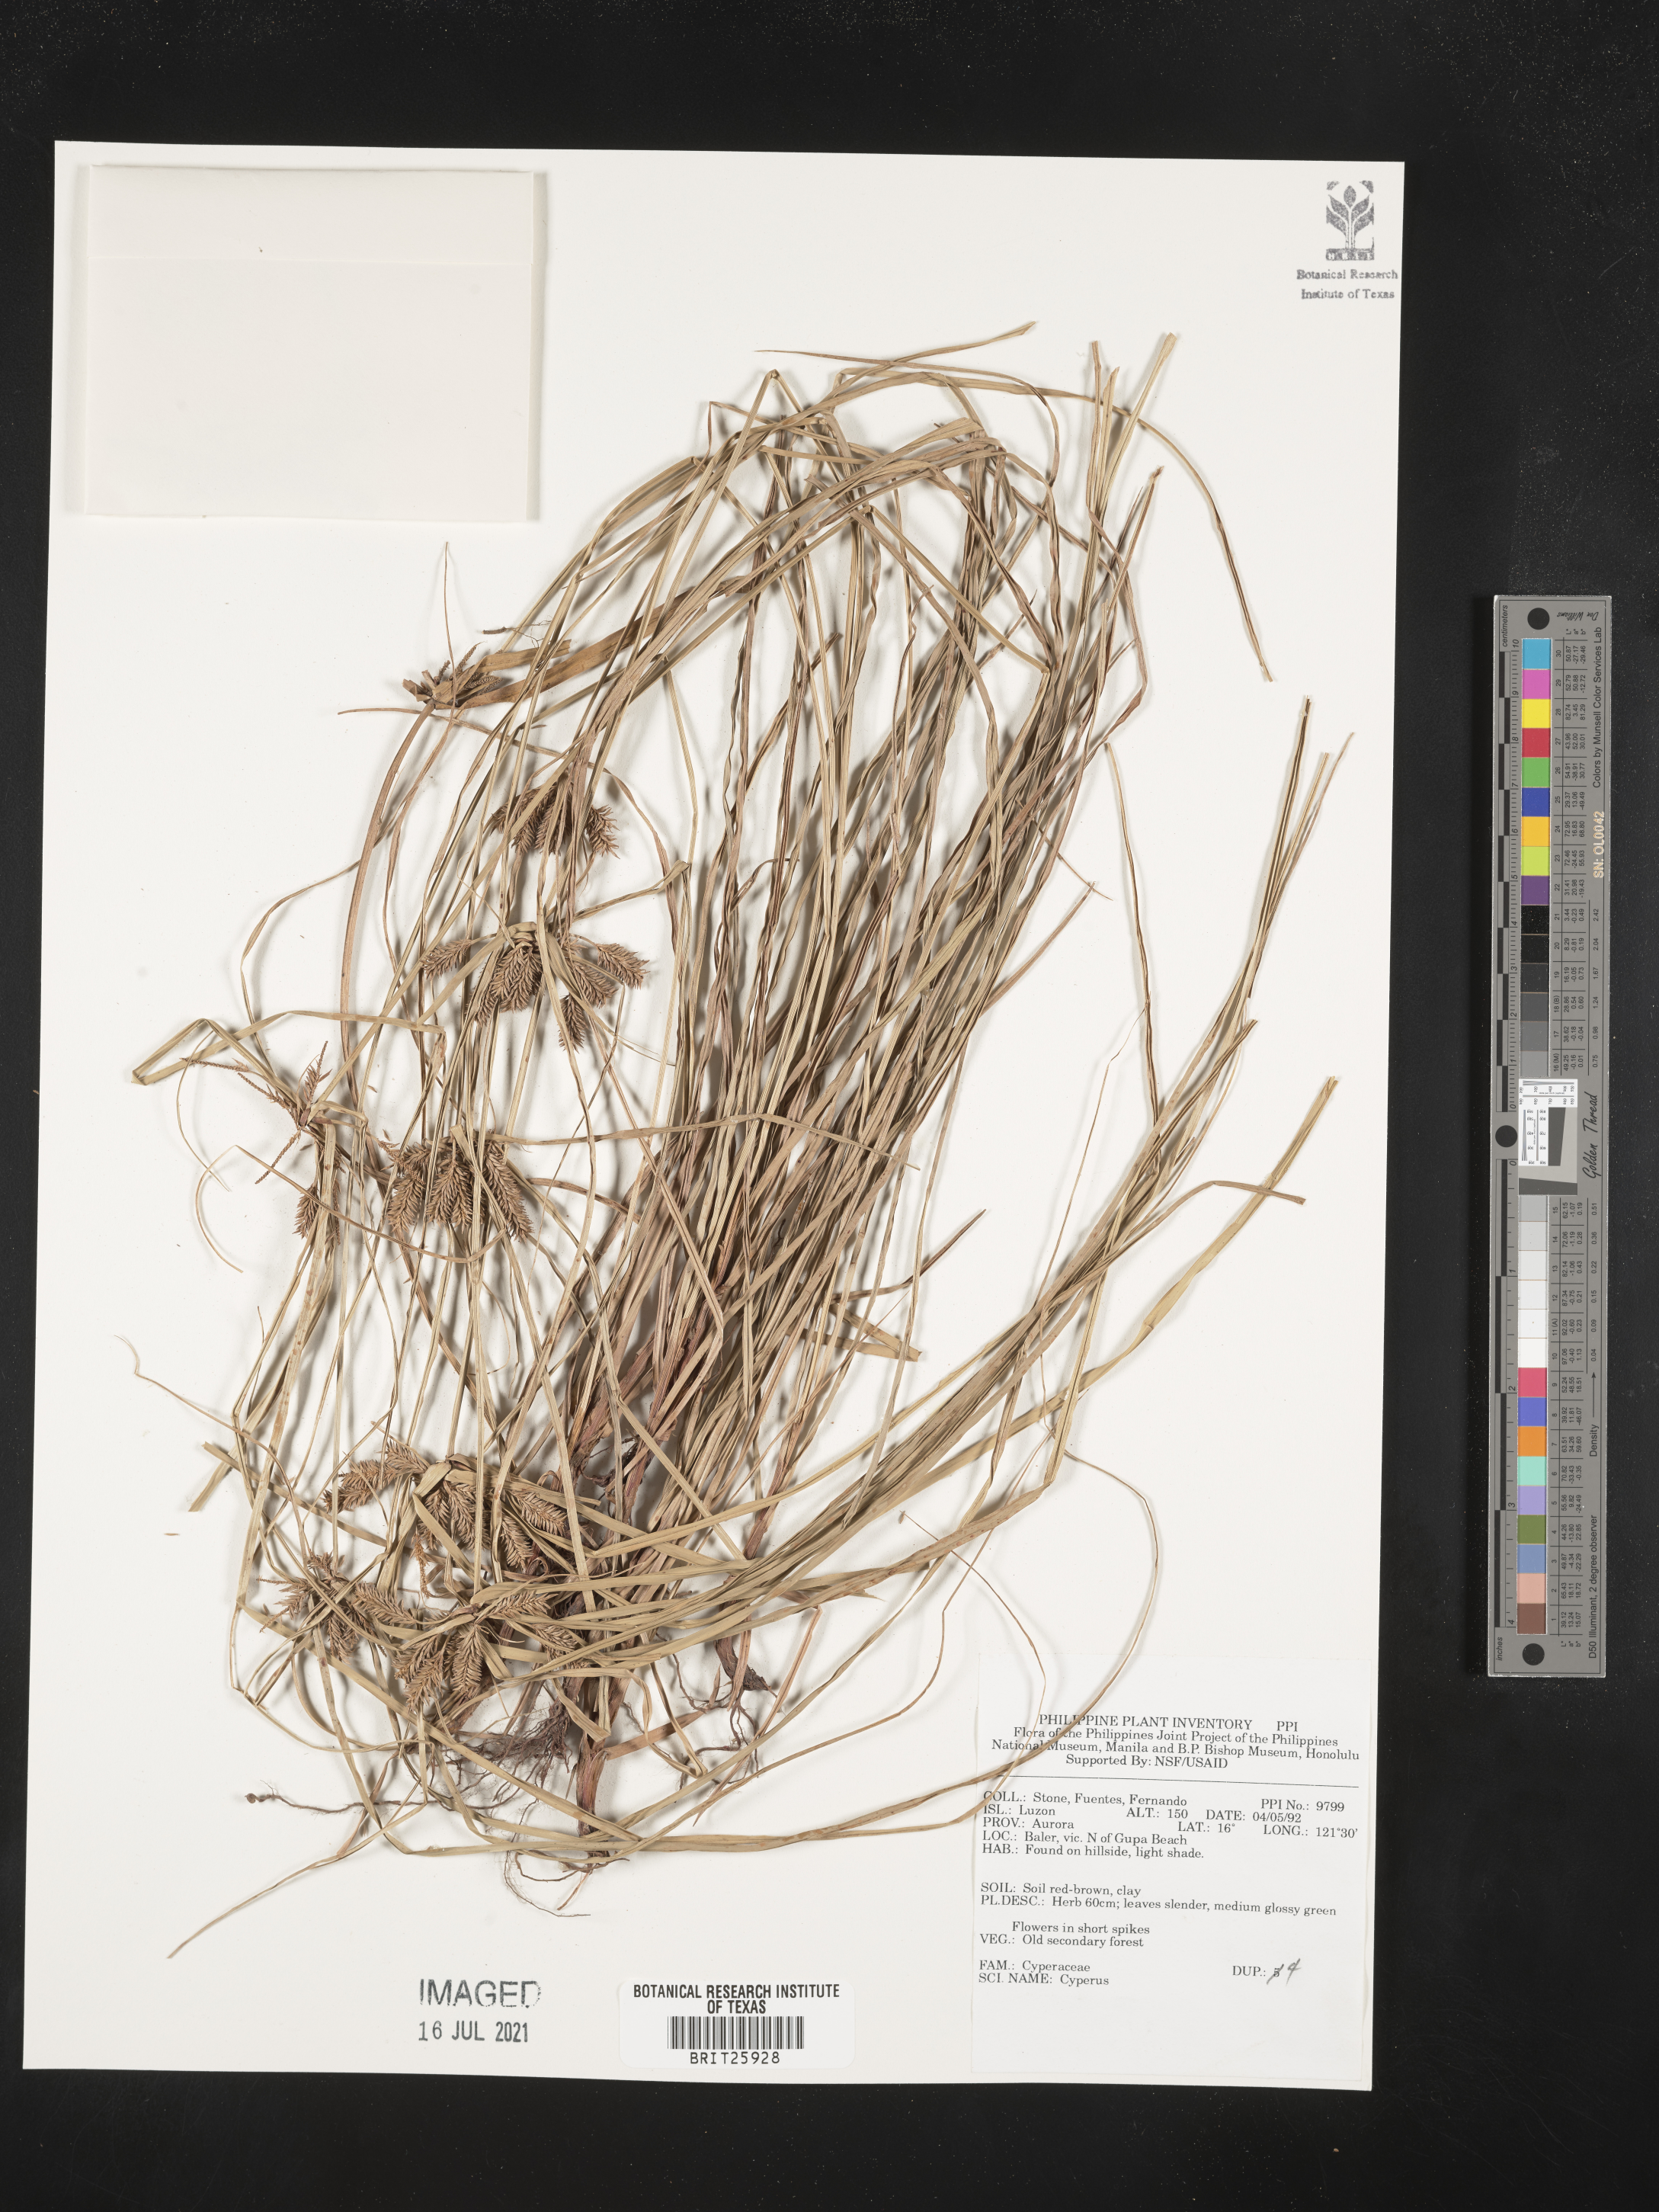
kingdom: Plantae
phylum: Tracheophyta
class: Liliopsida
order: Poales
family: Cyperaceae
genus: Cyperus
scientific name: Cyperus
